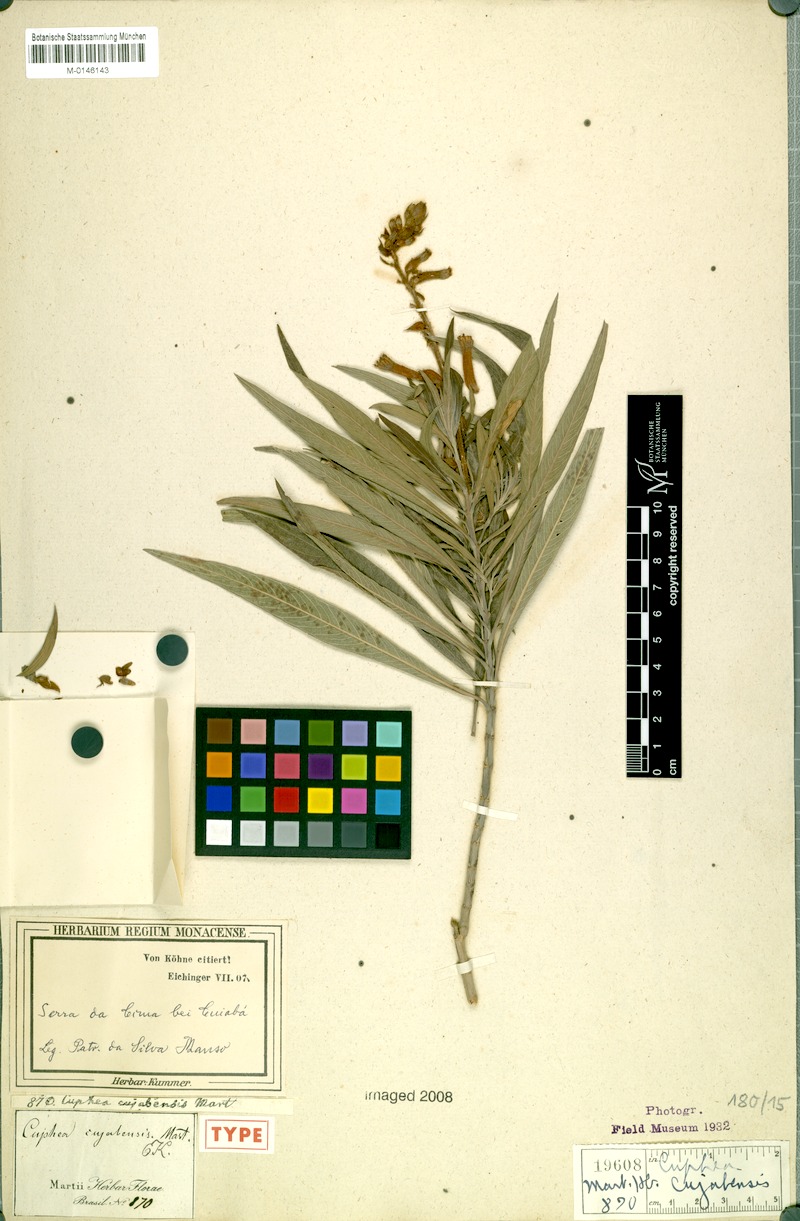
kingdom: Plantae
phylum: Tracheophyta
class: Magnoliopsida
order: Myrtales
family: Lythraceae
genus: Cuphea
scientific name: Cuphea cuiabensis
